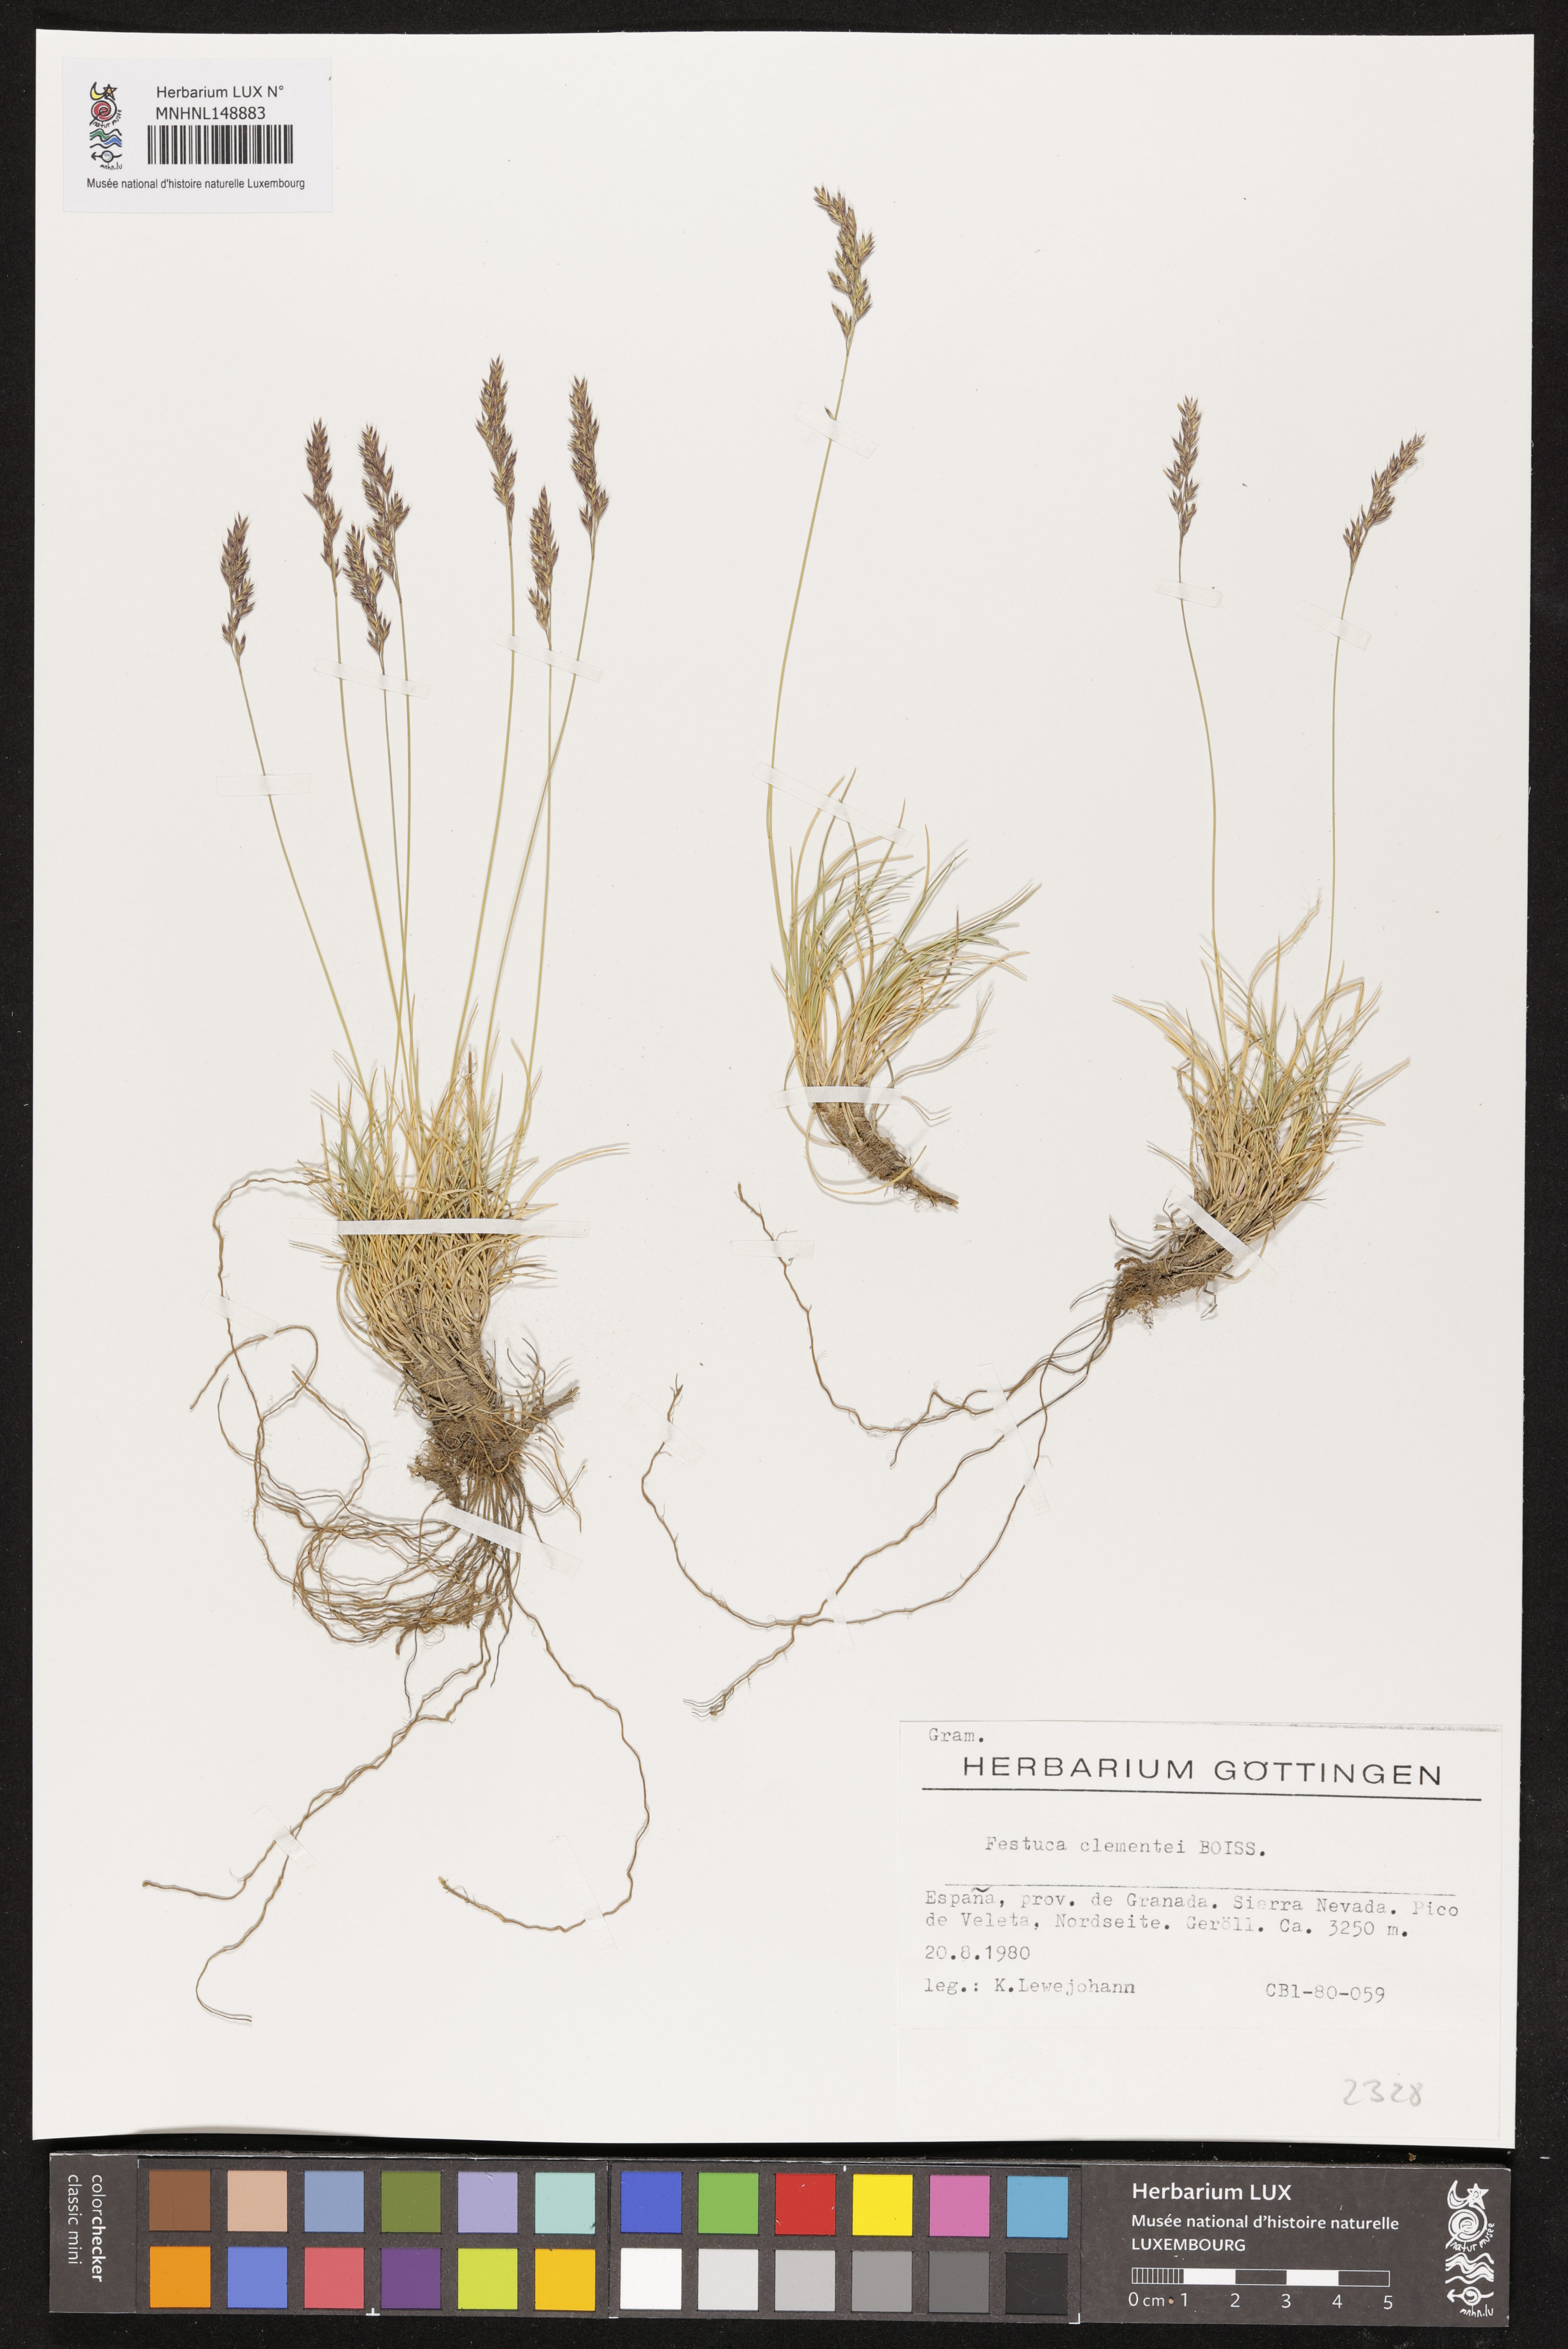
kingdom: Plantae
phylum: Tracheophyta
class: Liliopsida
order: Poales
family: Poaceae
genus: Festuca
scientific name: Festuca clementei
